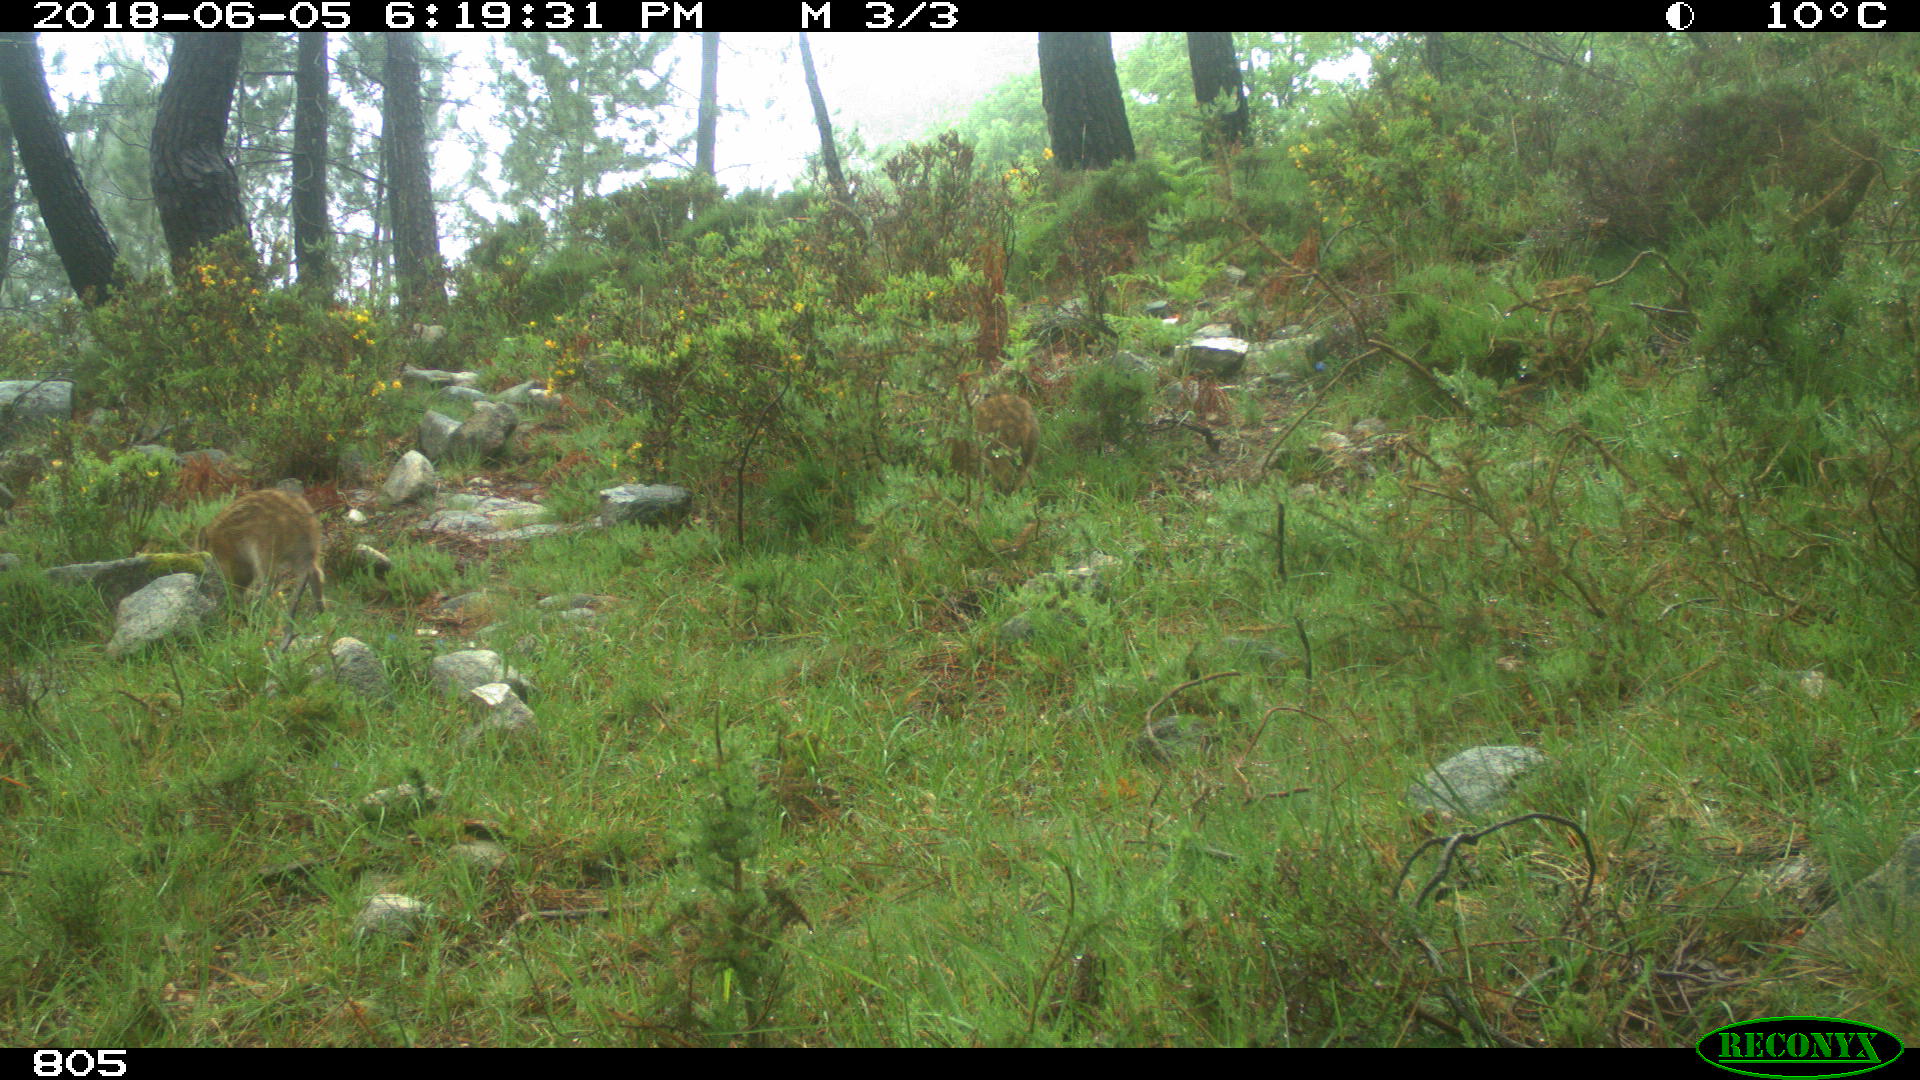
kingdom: Animalia
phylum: Chordata
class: Mammalia
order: Artiodactyla
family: Suidae
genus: Sus
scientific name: Sus scrofa
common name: Wild boar
